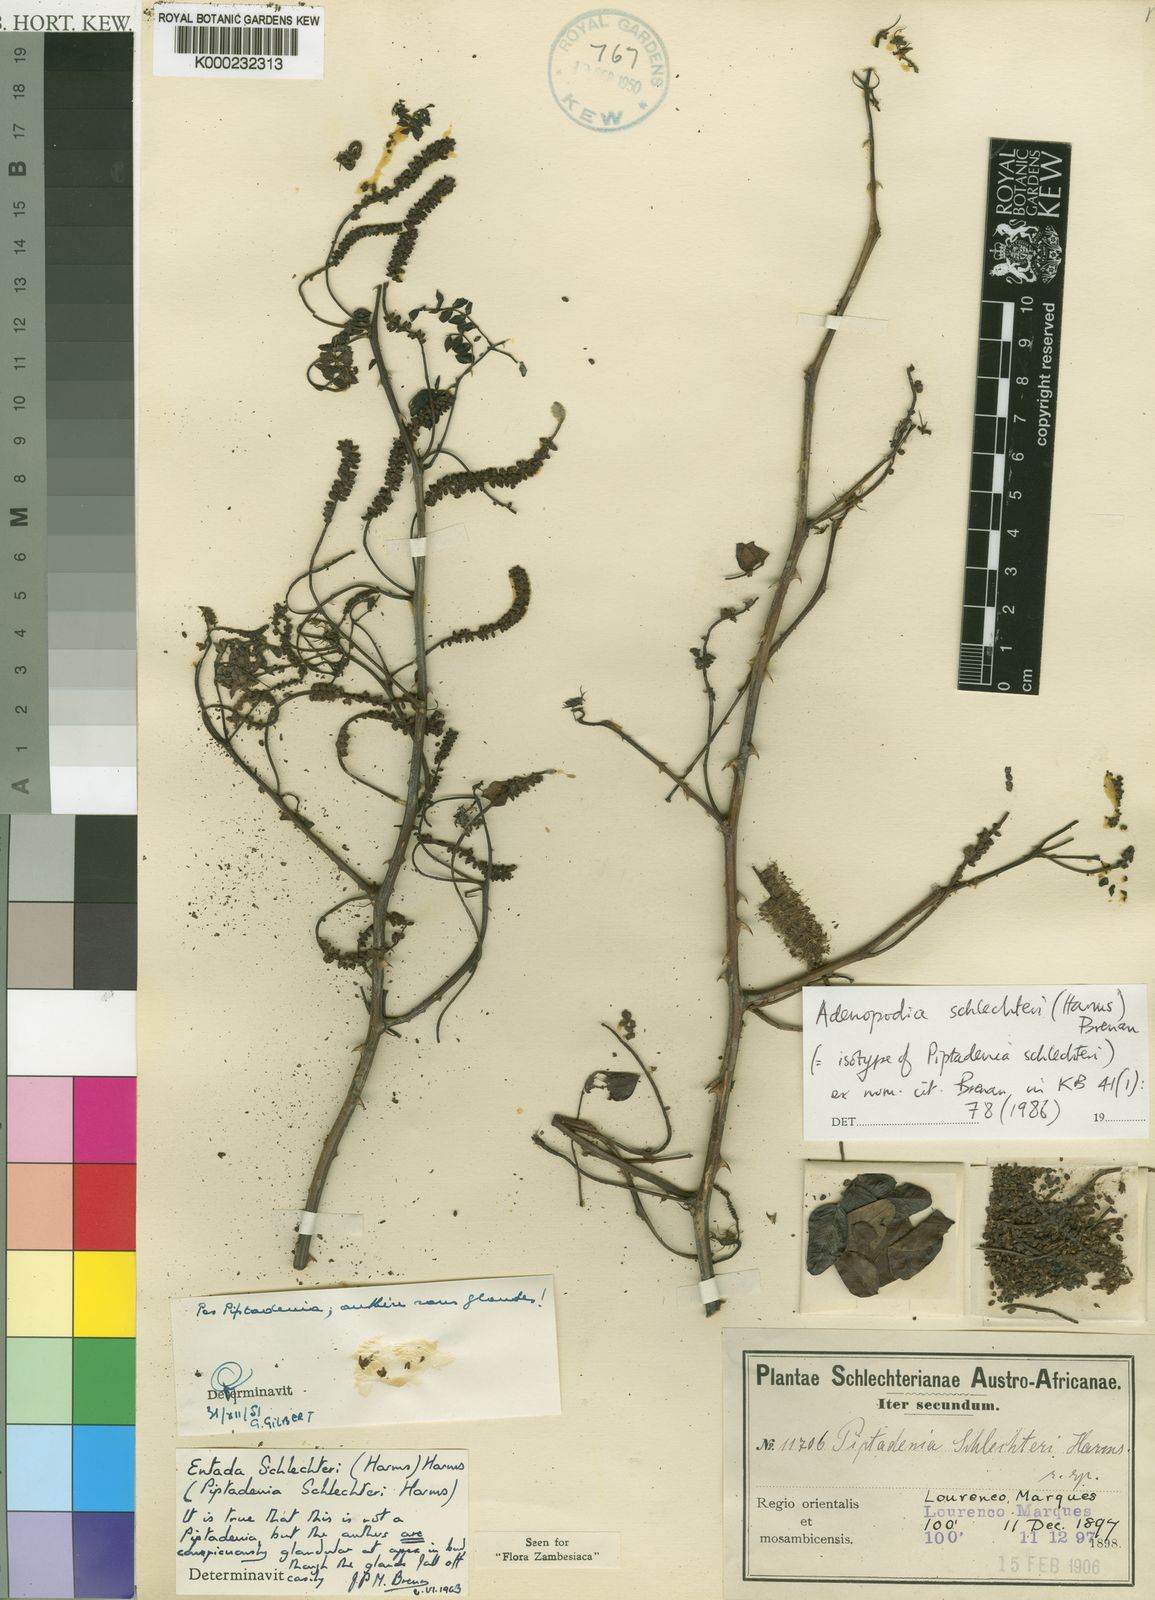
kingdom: Plantae
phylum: Tracheophyta
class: Magnoliopsida
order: Fabales
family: Fabaceae
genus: Adenopodia
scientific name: Adenopodia
